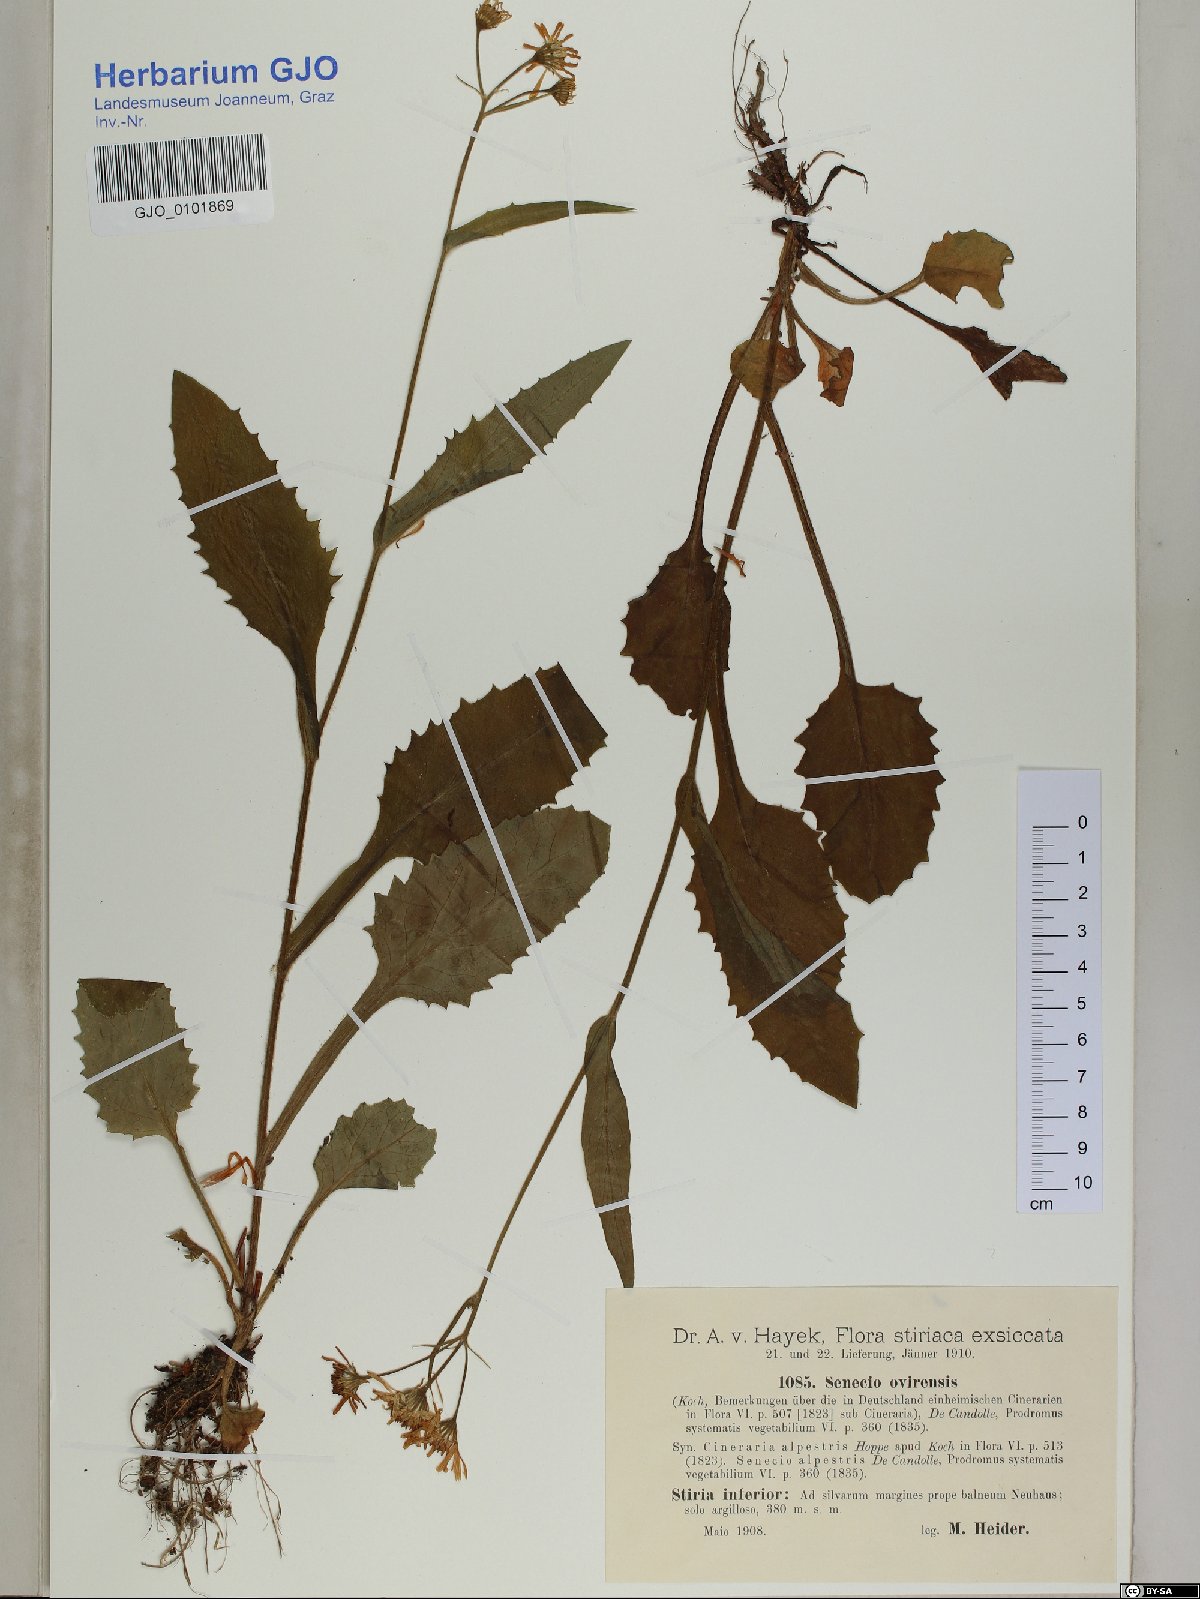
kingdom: Plantae
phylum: Tracheophyta
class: Magnoliopsida
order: Asterales
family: Asteraceae
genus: Tephroseris
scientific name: Tephroseris longifolia
